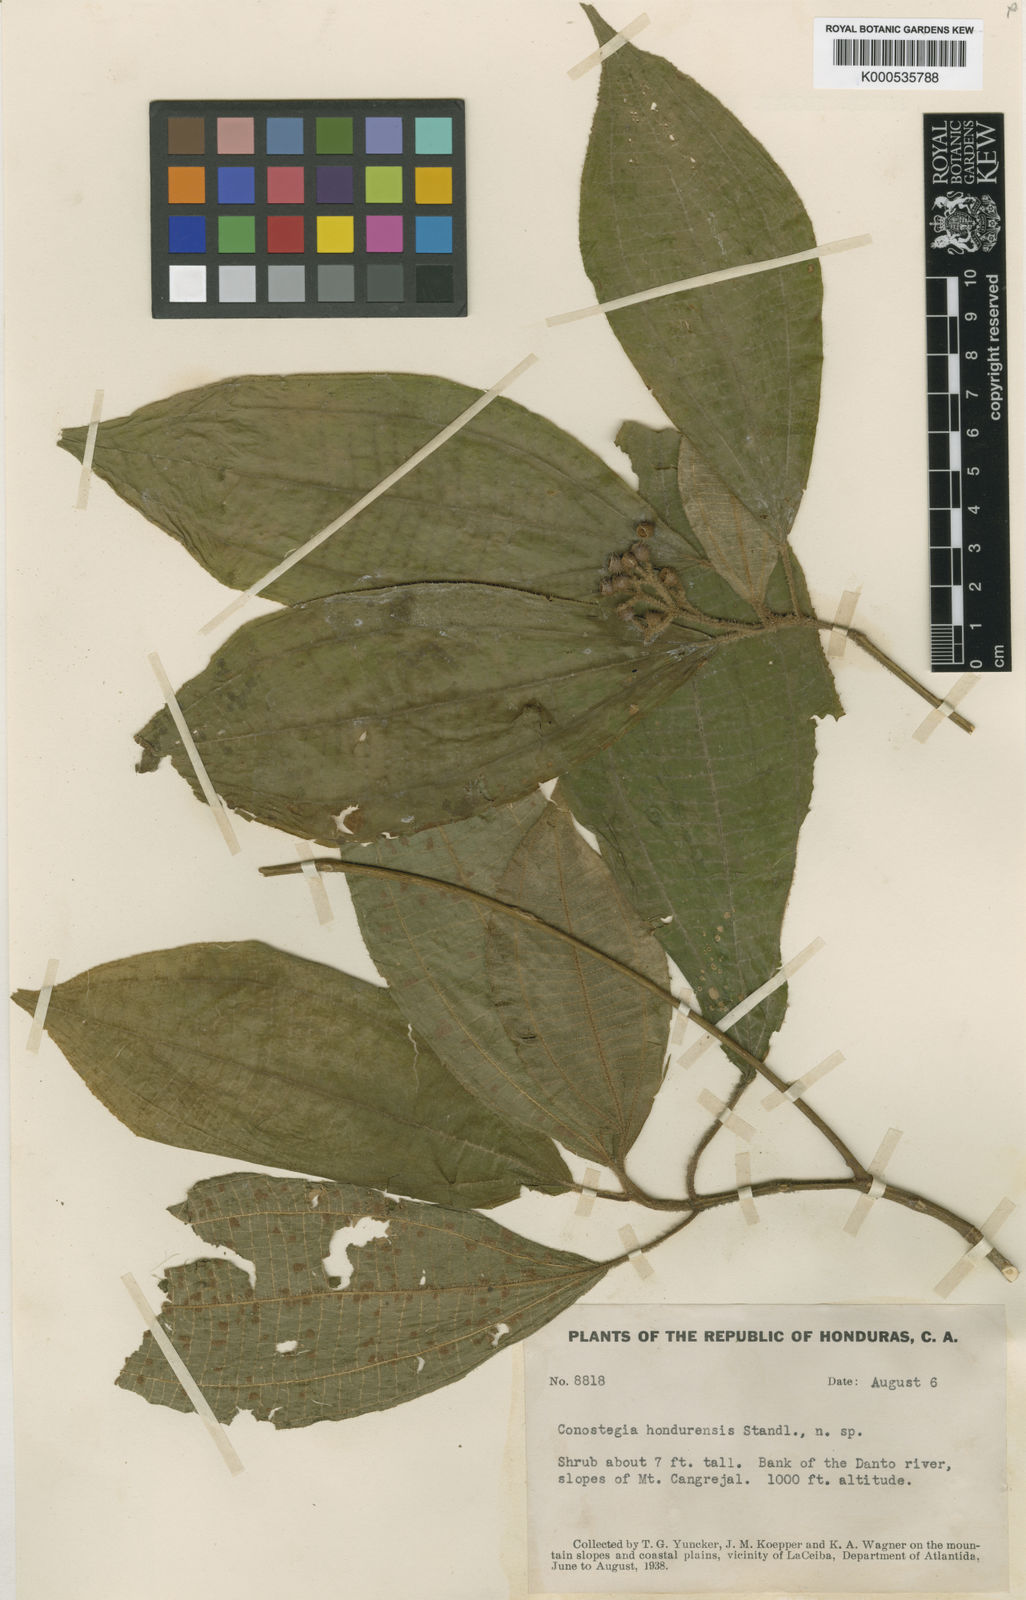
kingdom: Plantae
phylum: Tracheophyta
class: Magnoliopsida
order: Myrtales
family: Melastomataceae
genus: Miconia
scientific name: Miconia caelestis
